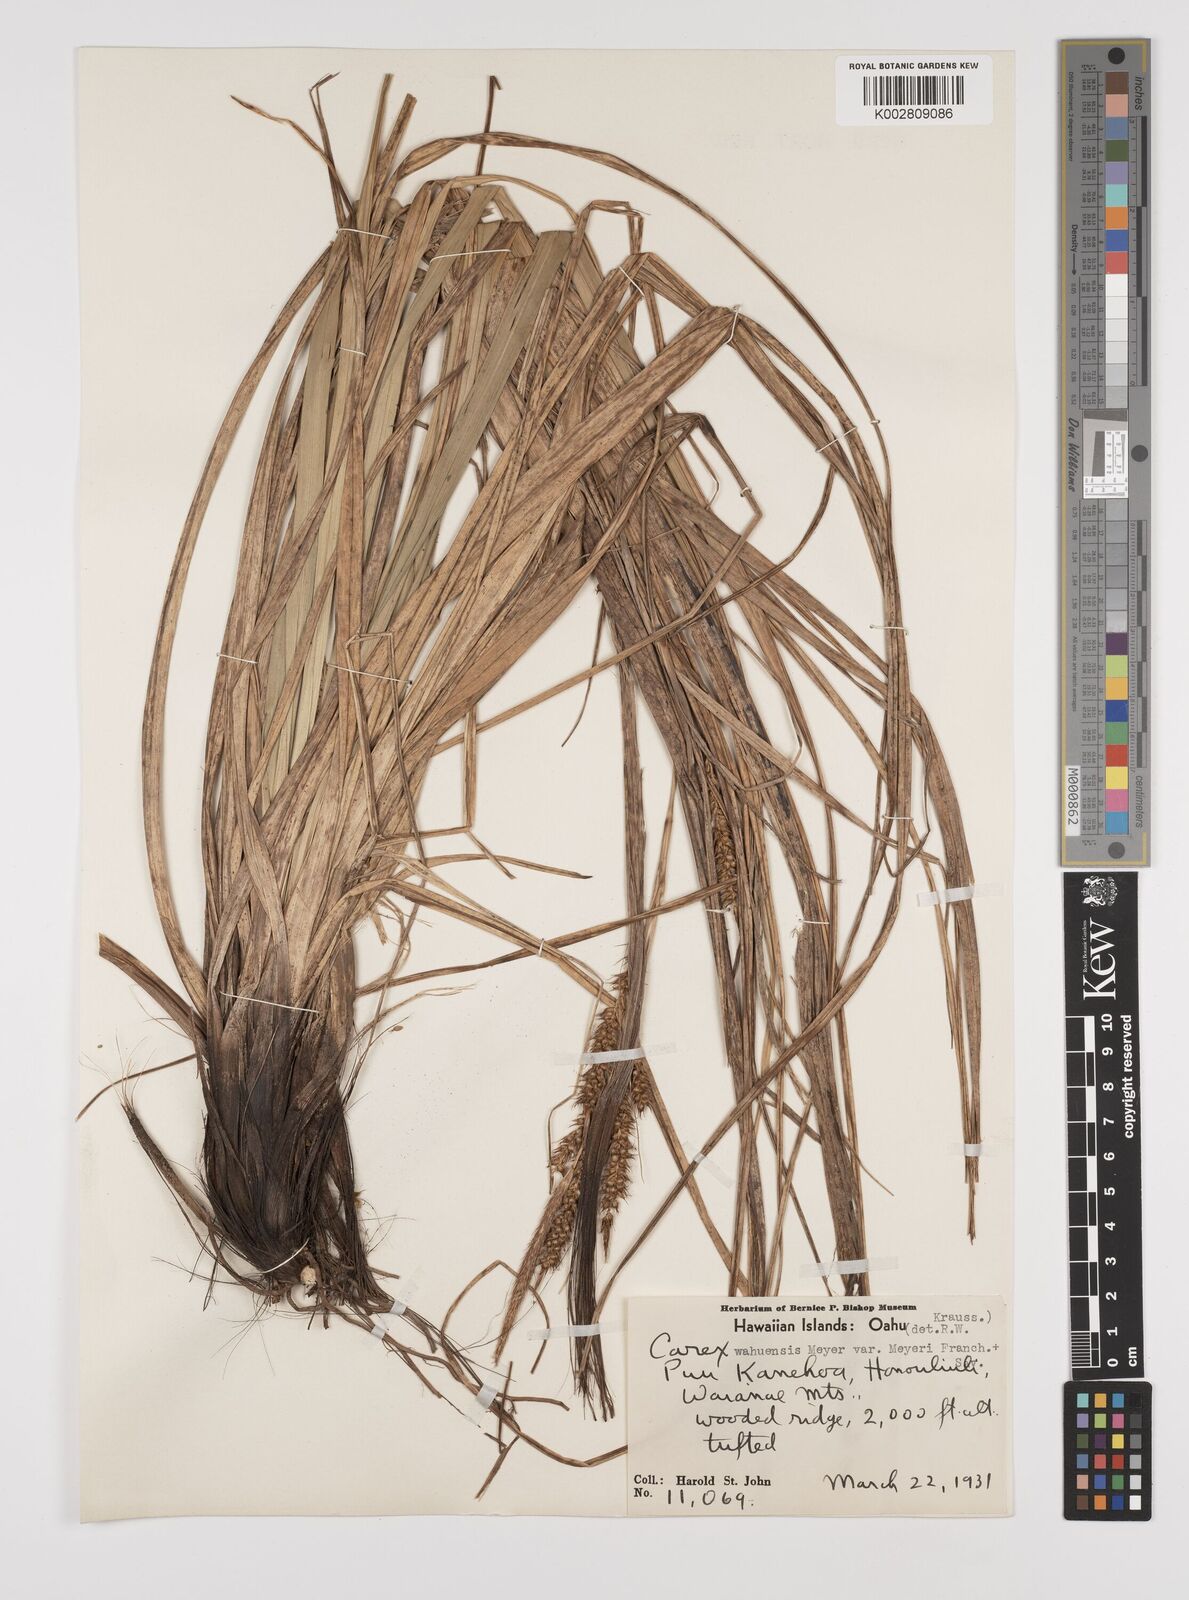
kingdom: Plantae
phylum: Tracheophyta
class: Liliopsida
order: Poales
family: Cyperaceae
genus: Carex
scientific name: Carex wahuensis
